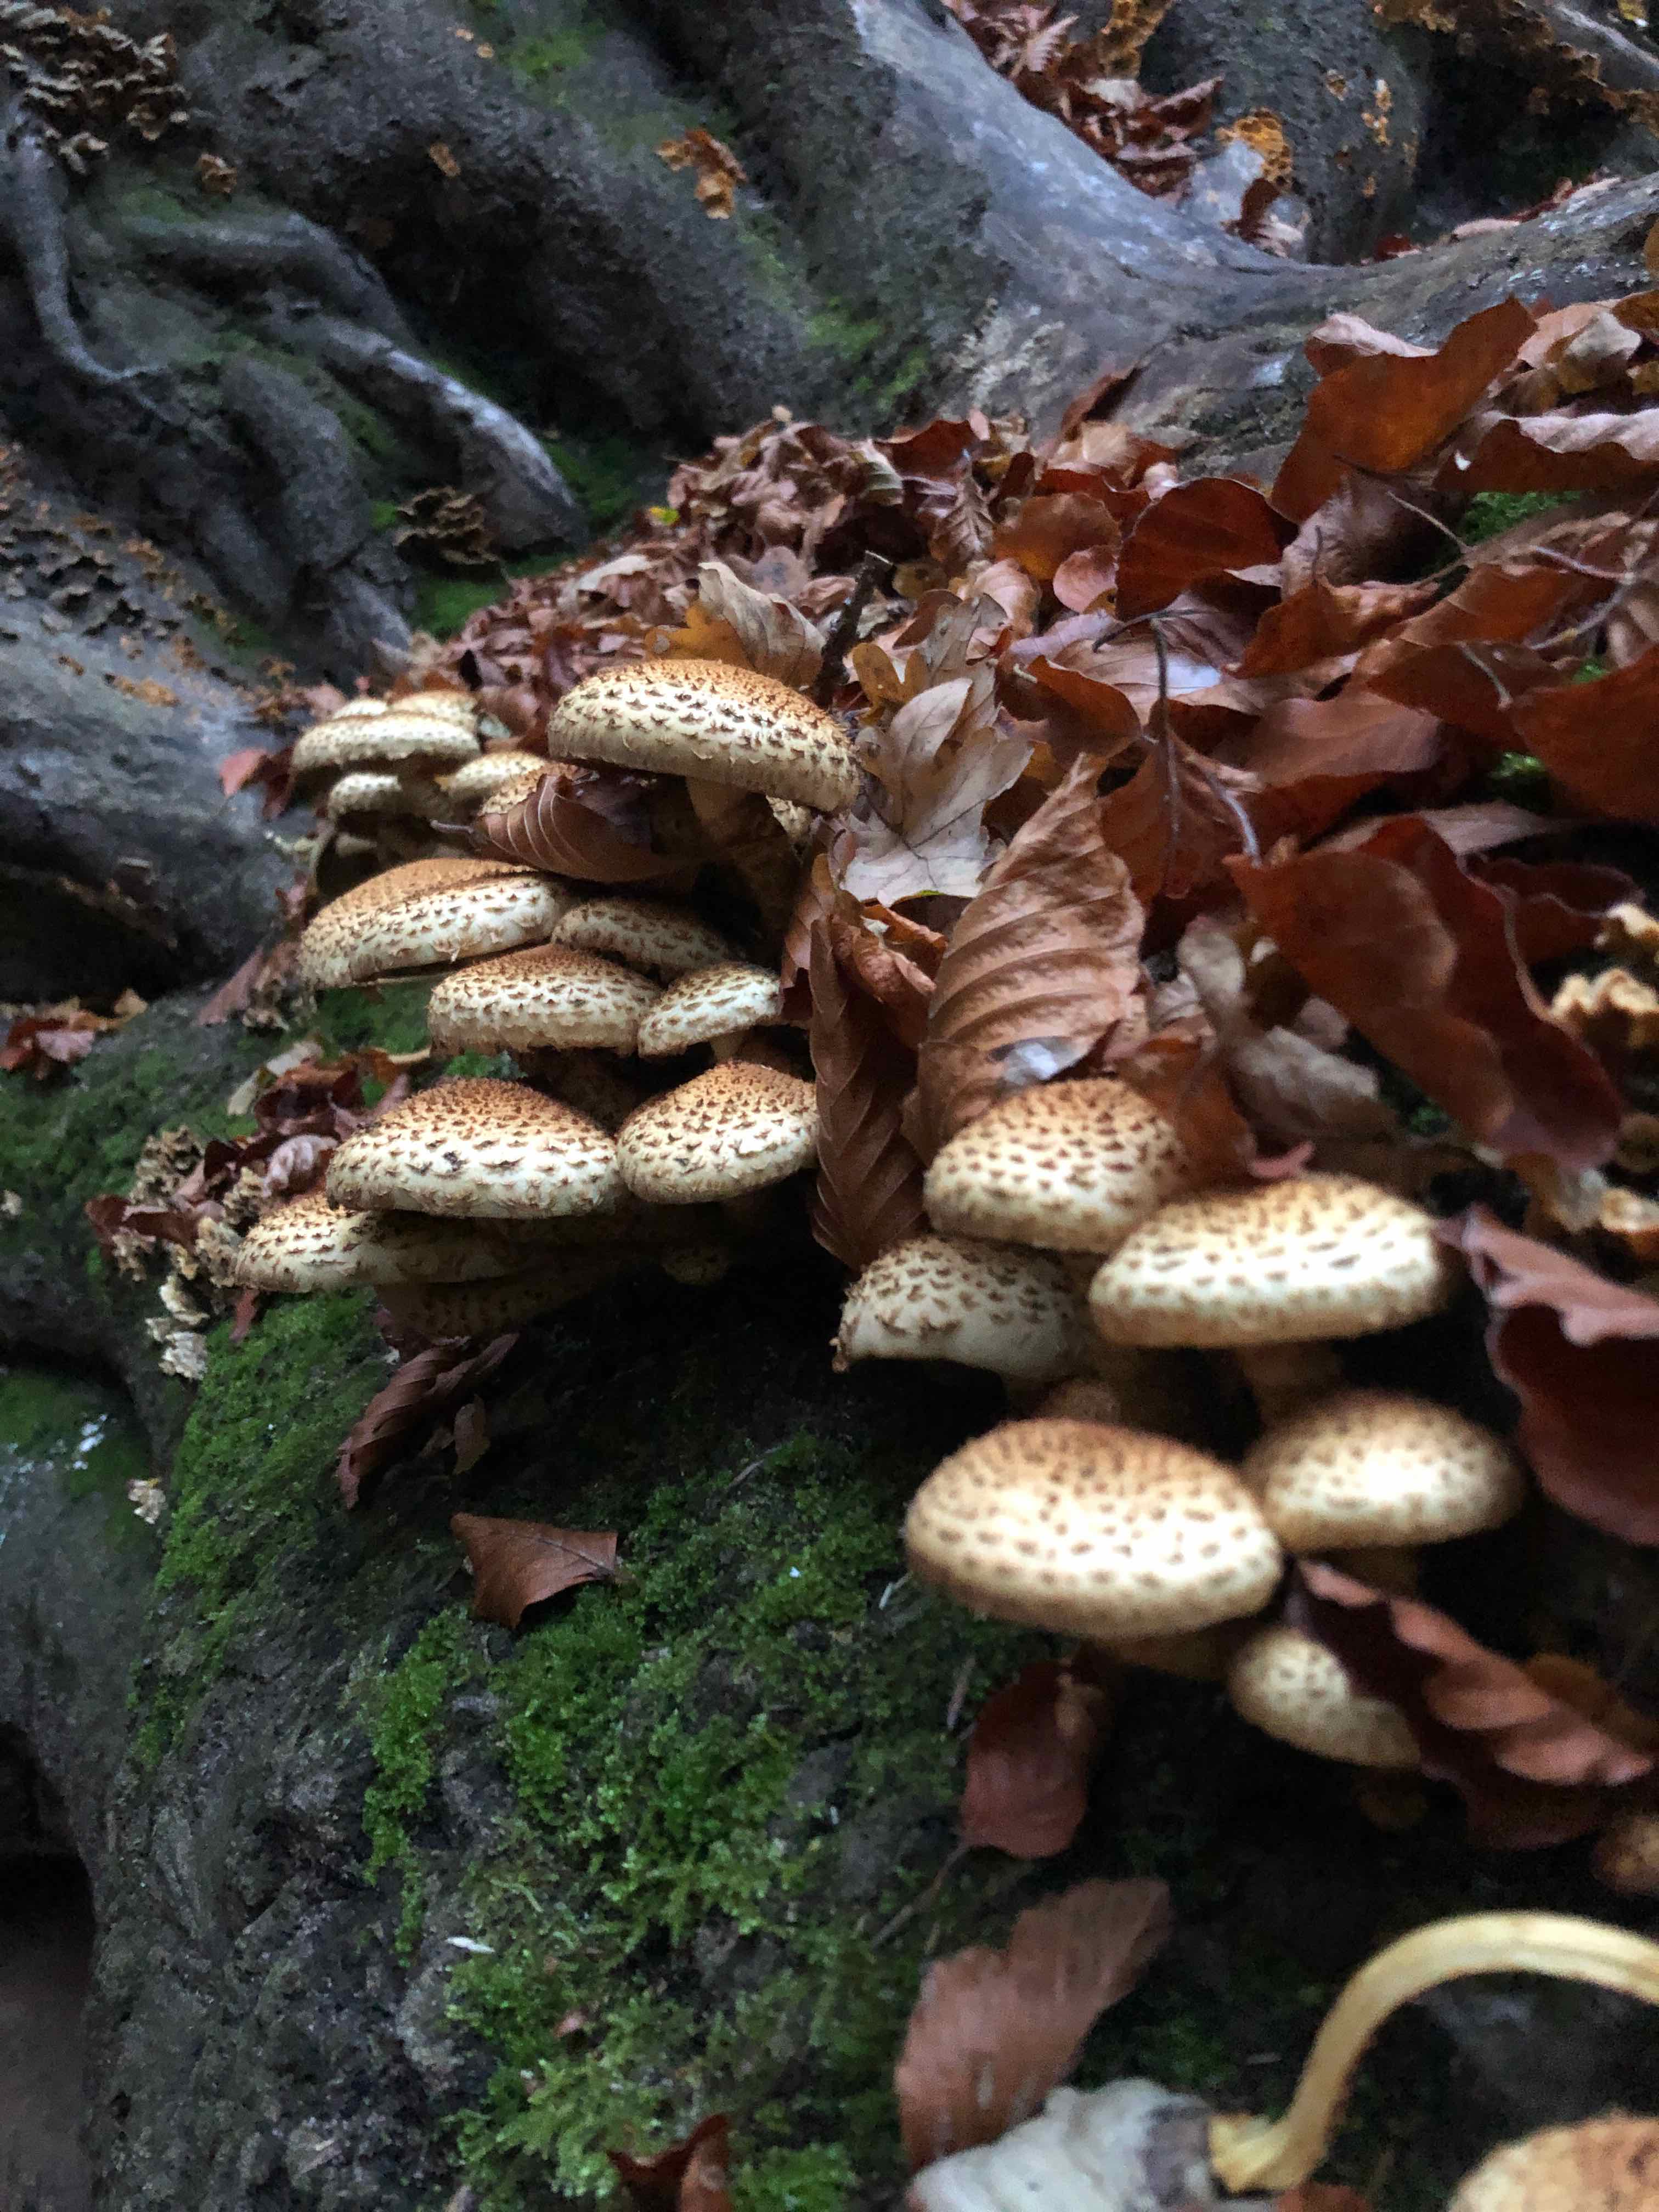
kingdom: Fungi
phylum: Basidiomycota
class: Agaricomycetes
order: Agaricales
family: Strophariaceae
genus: Pholiota
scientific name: Pholiota squarrosa
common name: krumskællet skælhat
